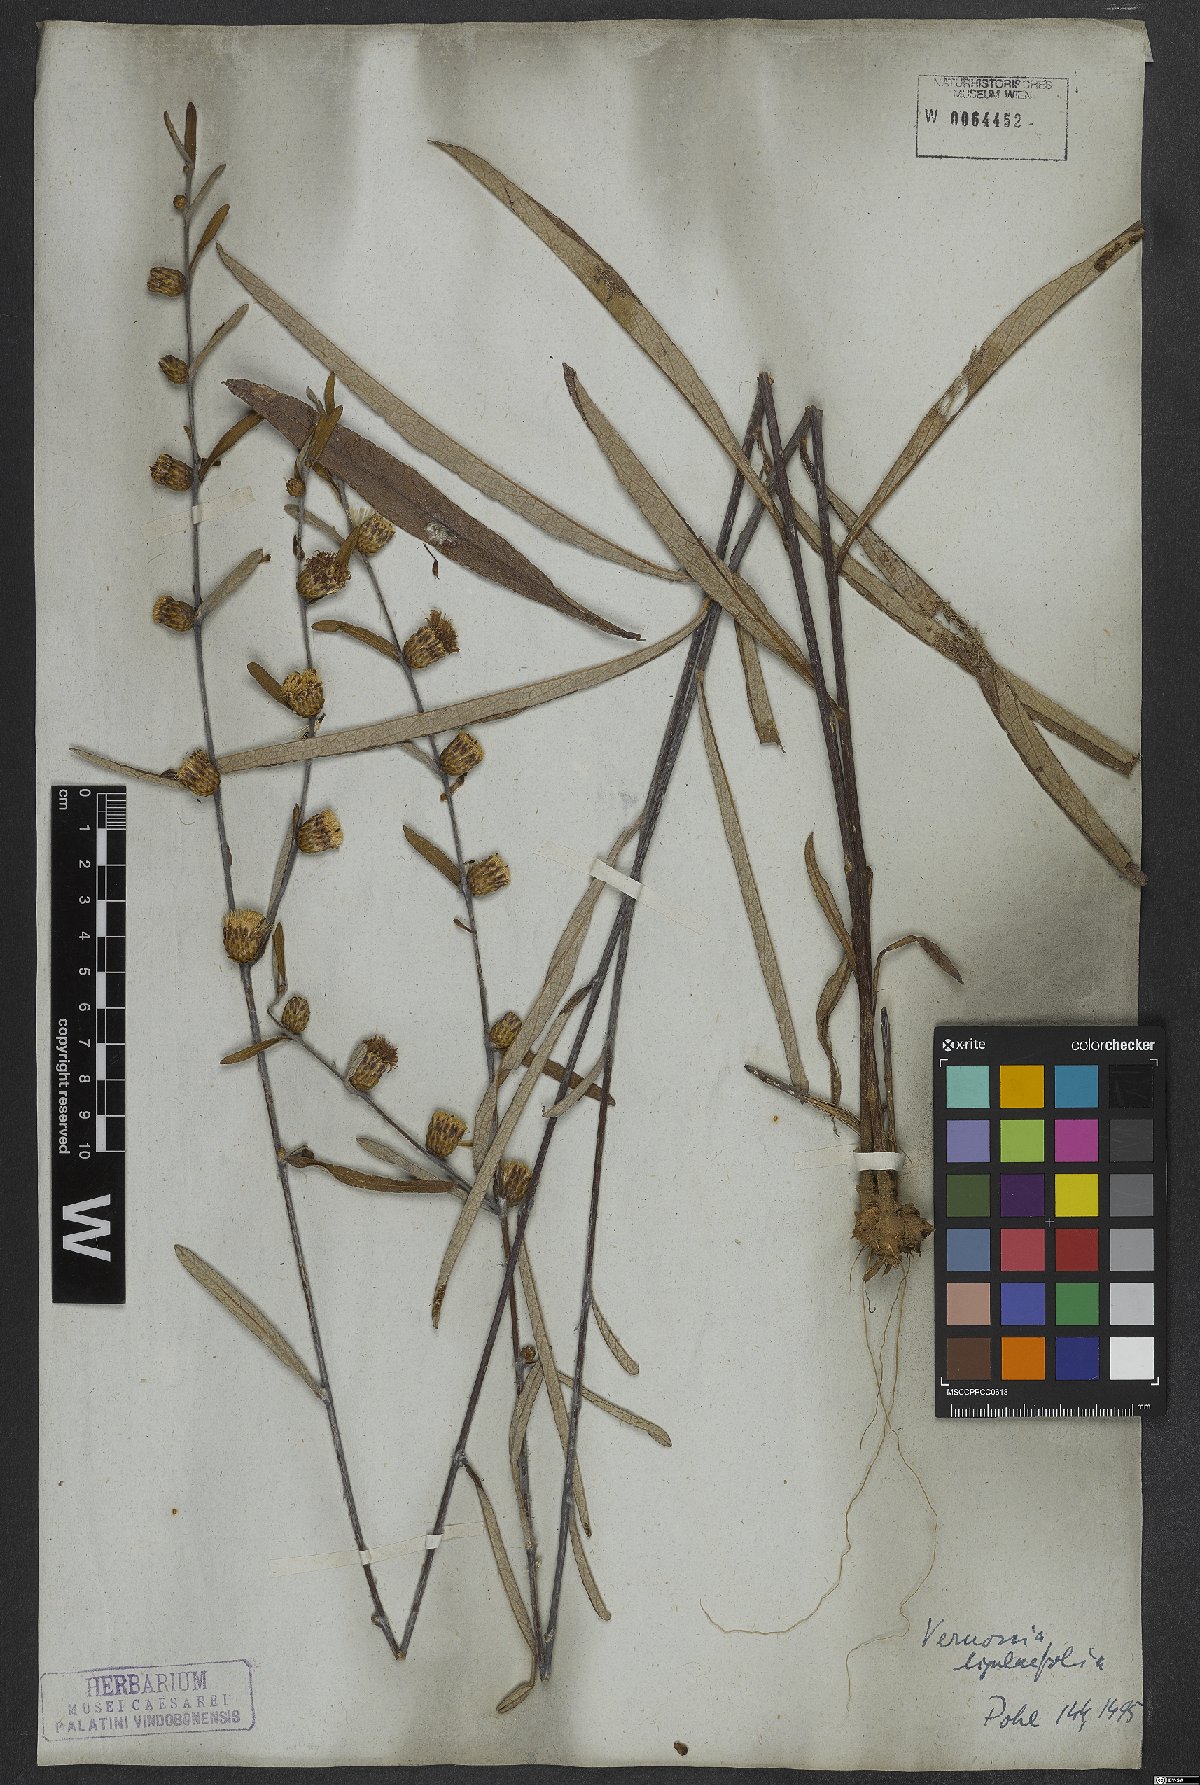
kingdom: Plantae
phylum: Tracheophyta
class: Magnoliopsida
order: Asterales
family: Asteraceae
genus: Lessingianthus
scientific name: Lessingianthus ligulifolius
